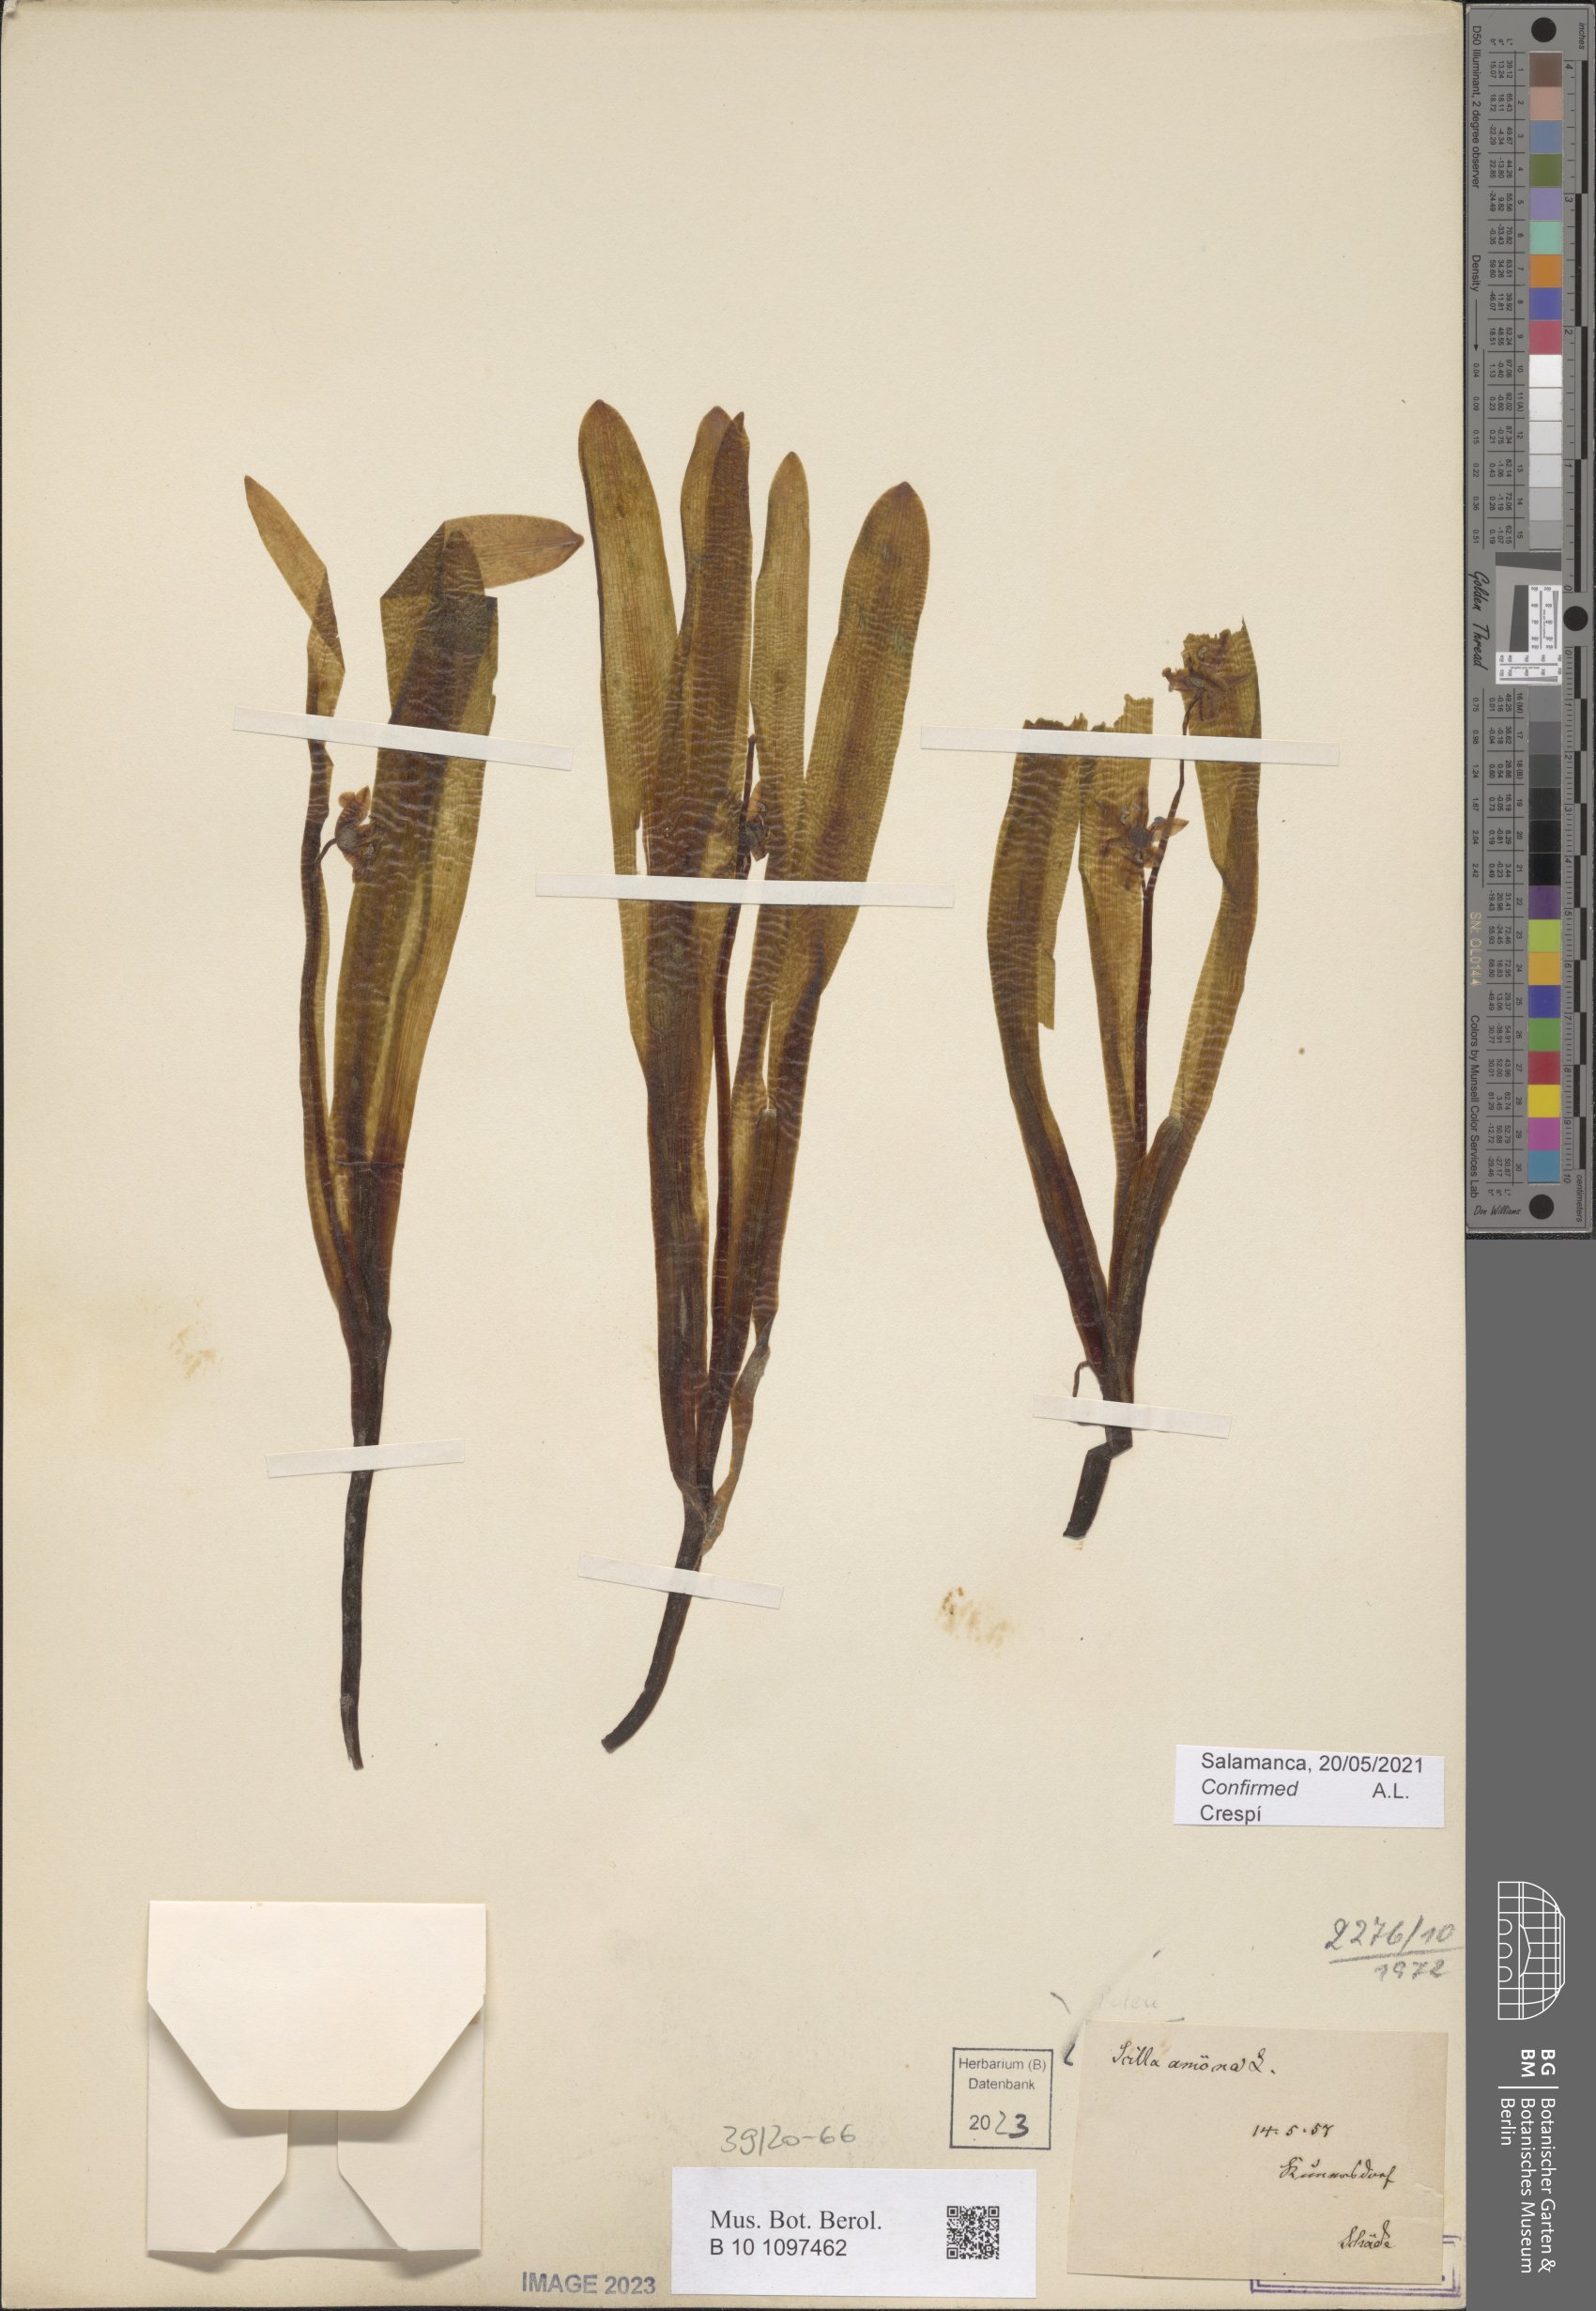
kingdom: Plantae
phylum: Tracheophyta
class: Liliopsida
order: Asparagales
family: Asparagaceae
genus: Scilla
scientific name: Scilla amoena
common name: Star-hyacinth
